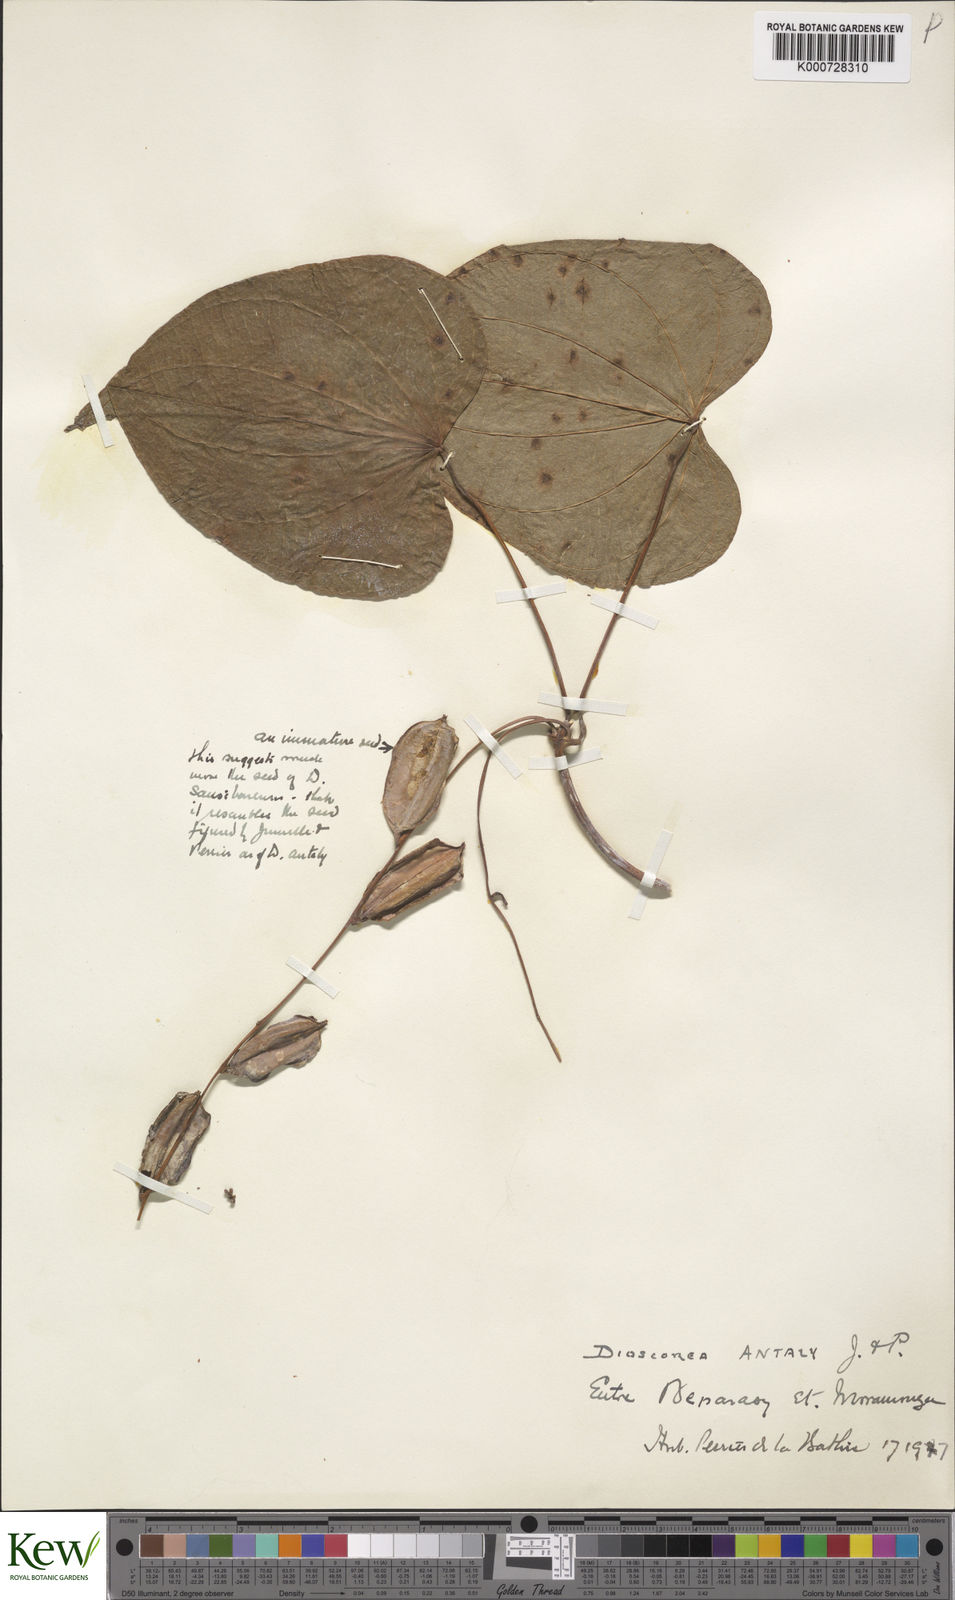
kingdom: Plantae
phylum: Tracheophyta
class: Liliopsida
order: Dioscoreales
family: Dioscoreaceae
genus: Dioscorea
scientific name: Dioscorea antaly
